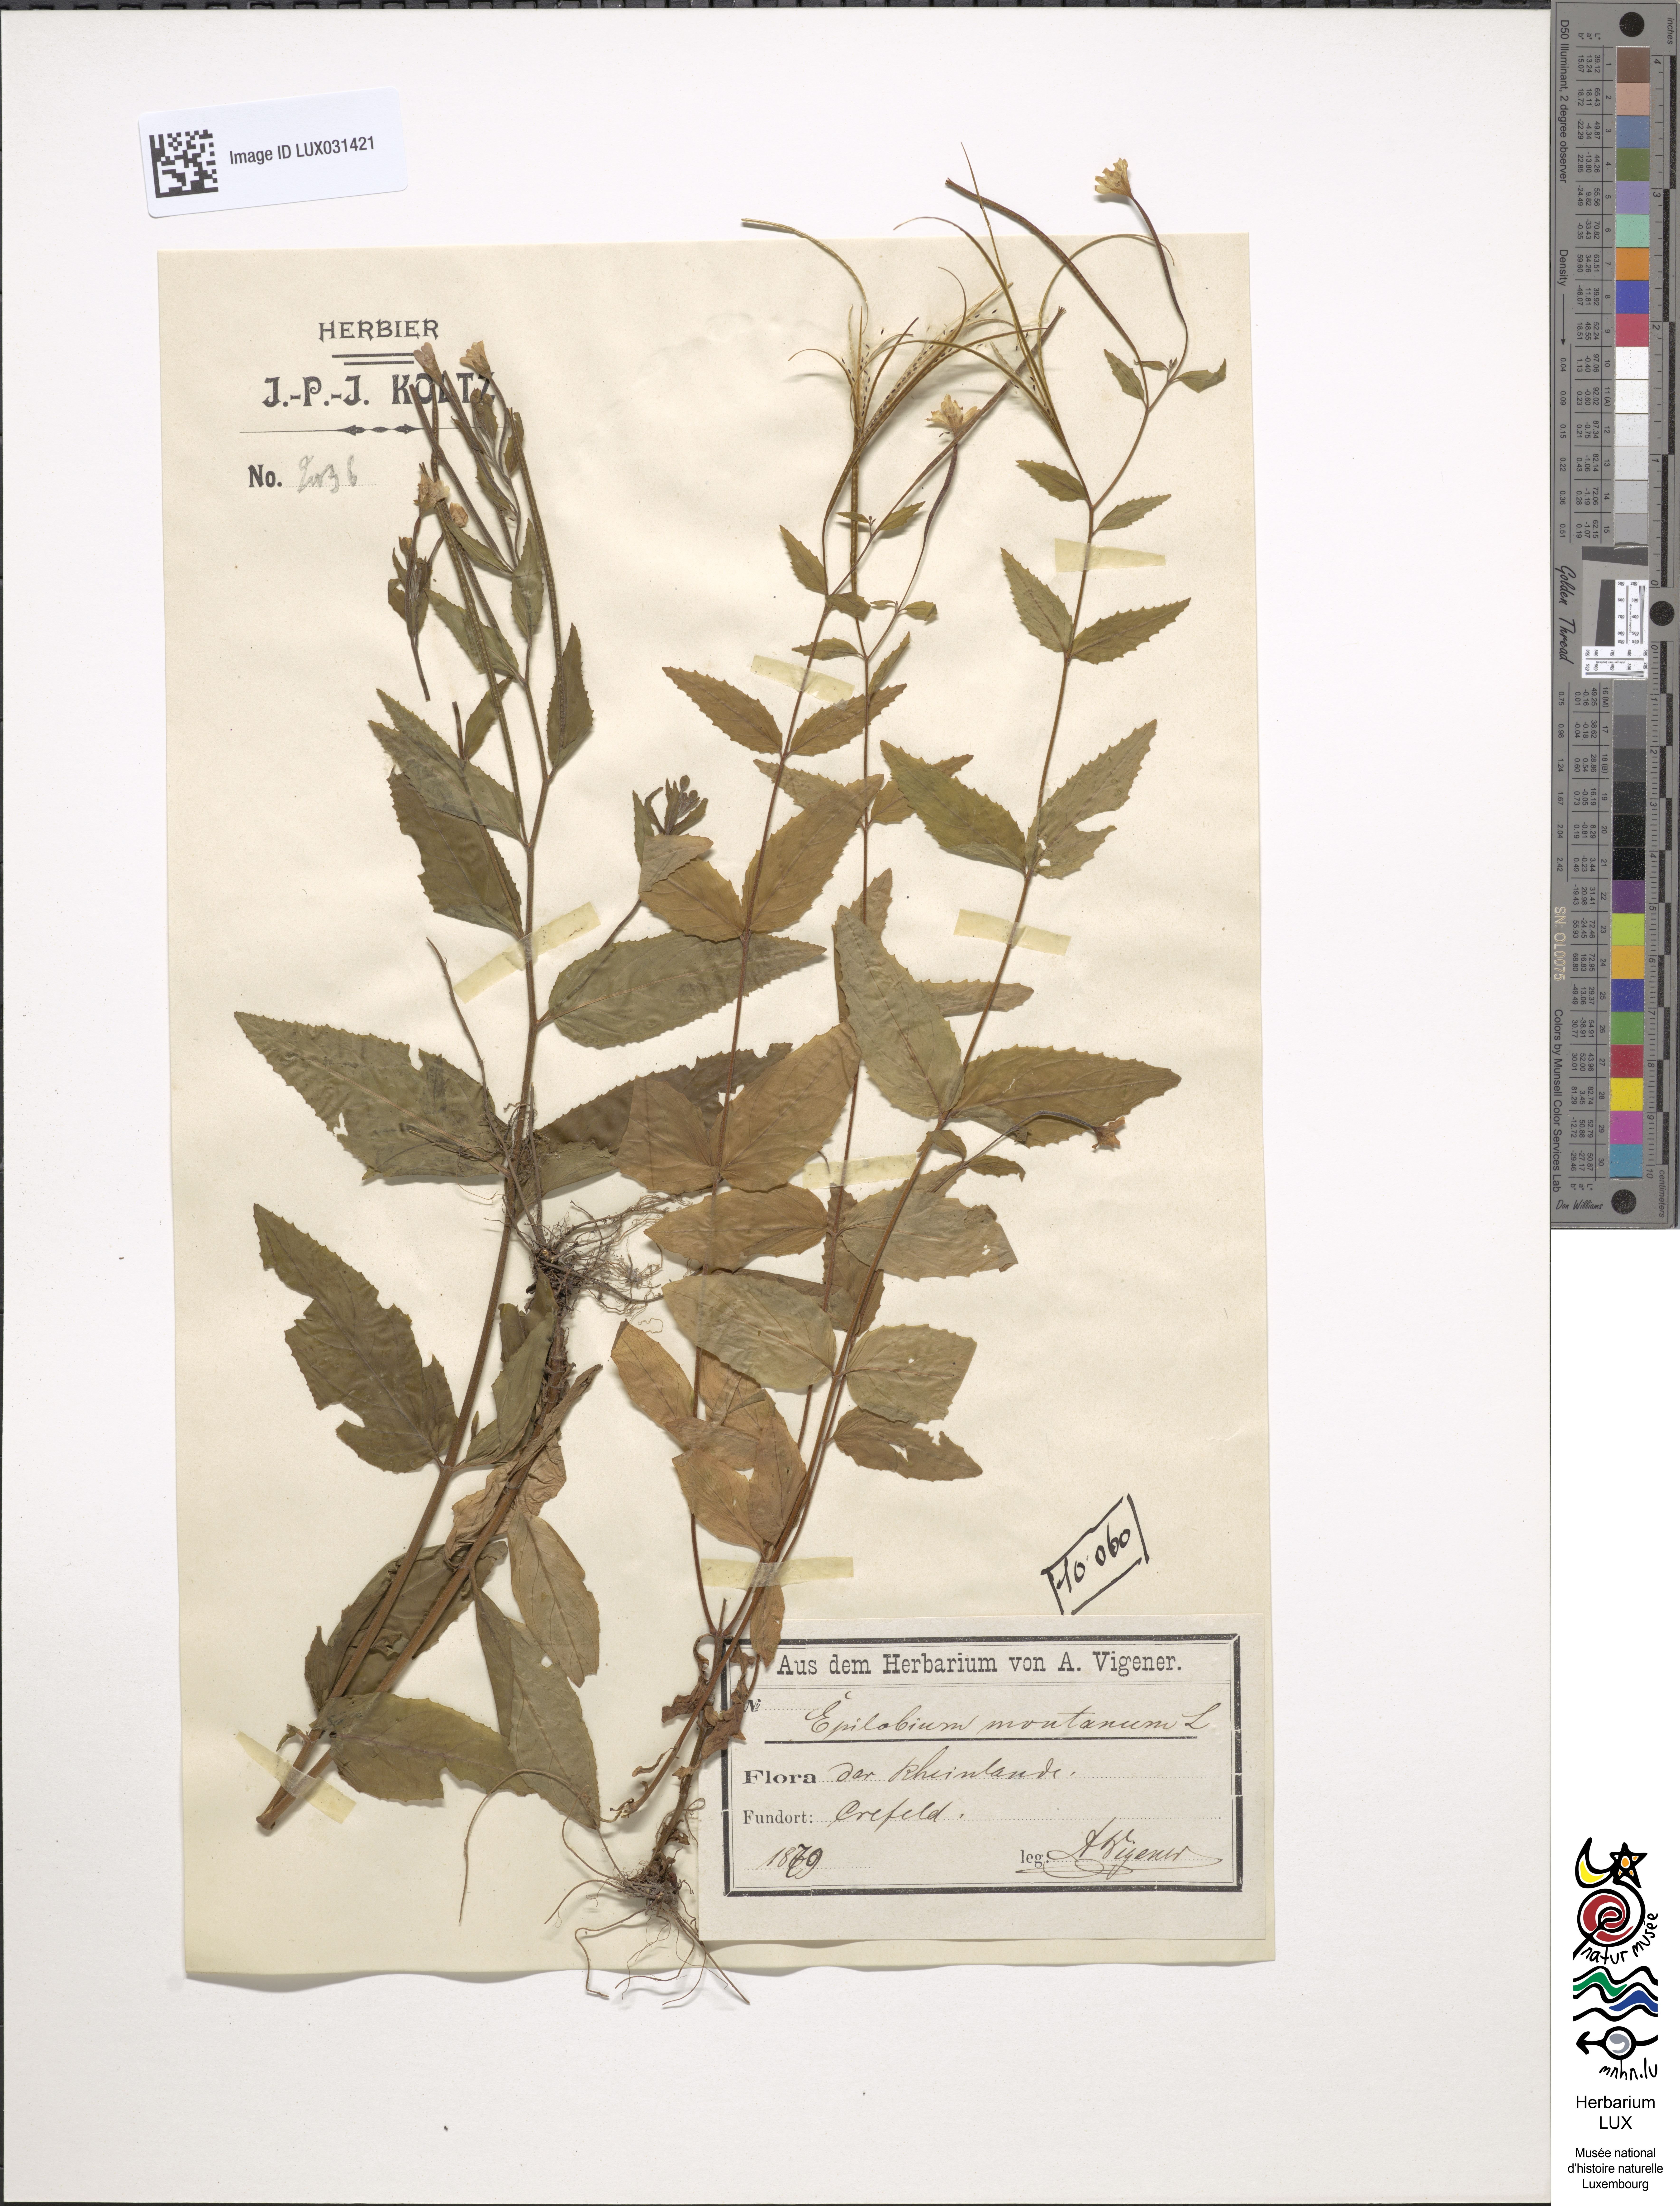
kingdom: Plantae
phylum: Tracheophyta
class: Magnoliopsida
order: Myrtales
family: Onagraceae
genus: Epilobium
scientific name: Epilobium montanum
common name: Broad-leaved willowherb
